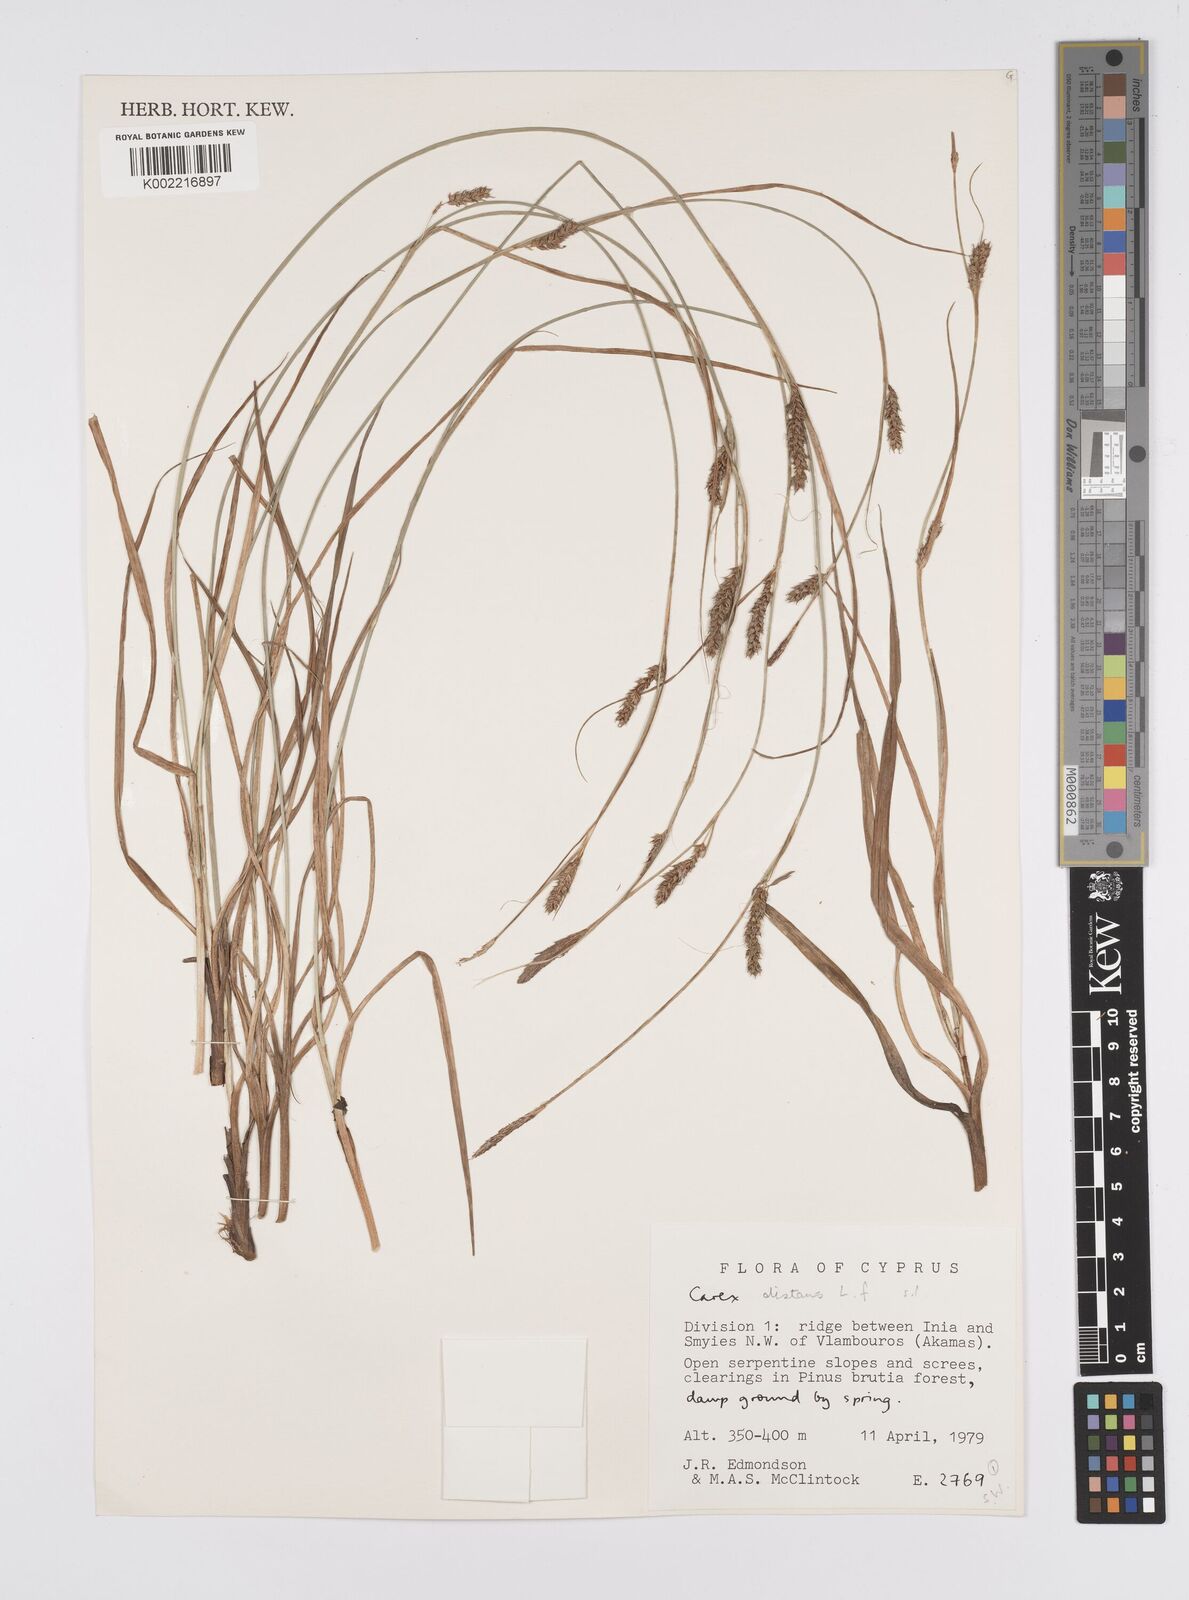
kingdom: Plantae
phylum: Tracheophyta
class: Liliopsida
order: Poales
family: Cyperaceae
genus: Carex
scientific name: Carex distans
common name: Distant sedge
